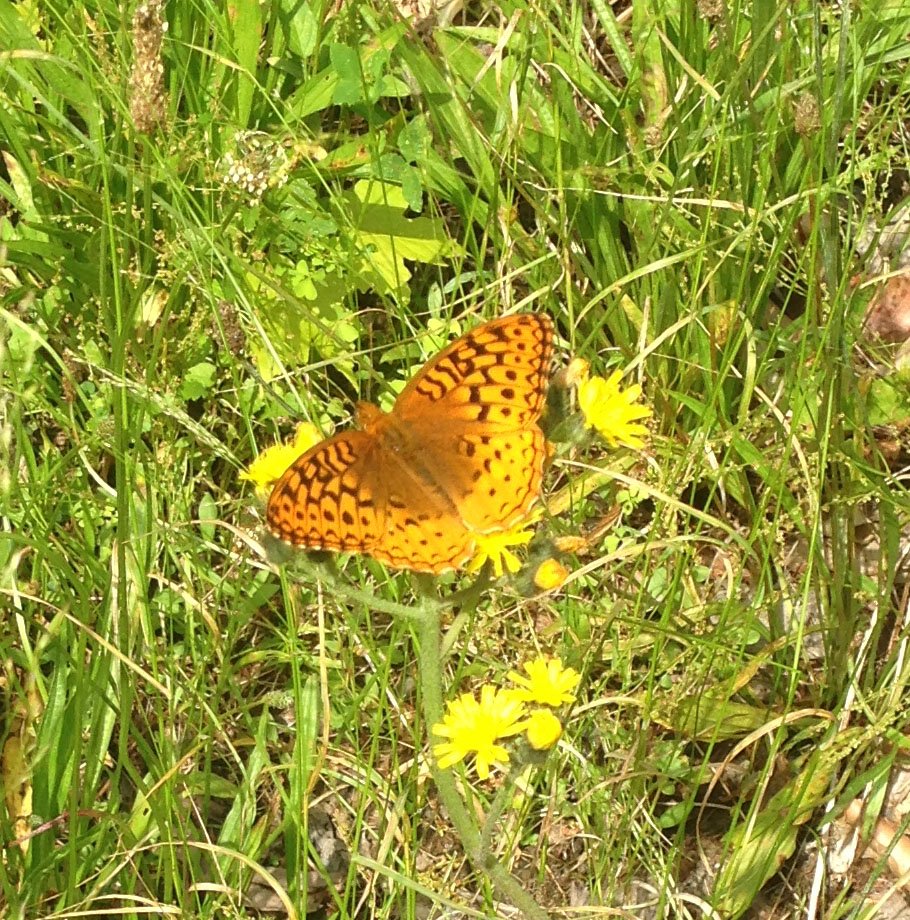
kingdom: Animalia
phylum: Arthropoda
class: Insecta
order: Lepidoptera
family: Nymphalidae
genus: Speyeria
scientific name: Speyeria cybele
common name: Great Spangled Fritillary
